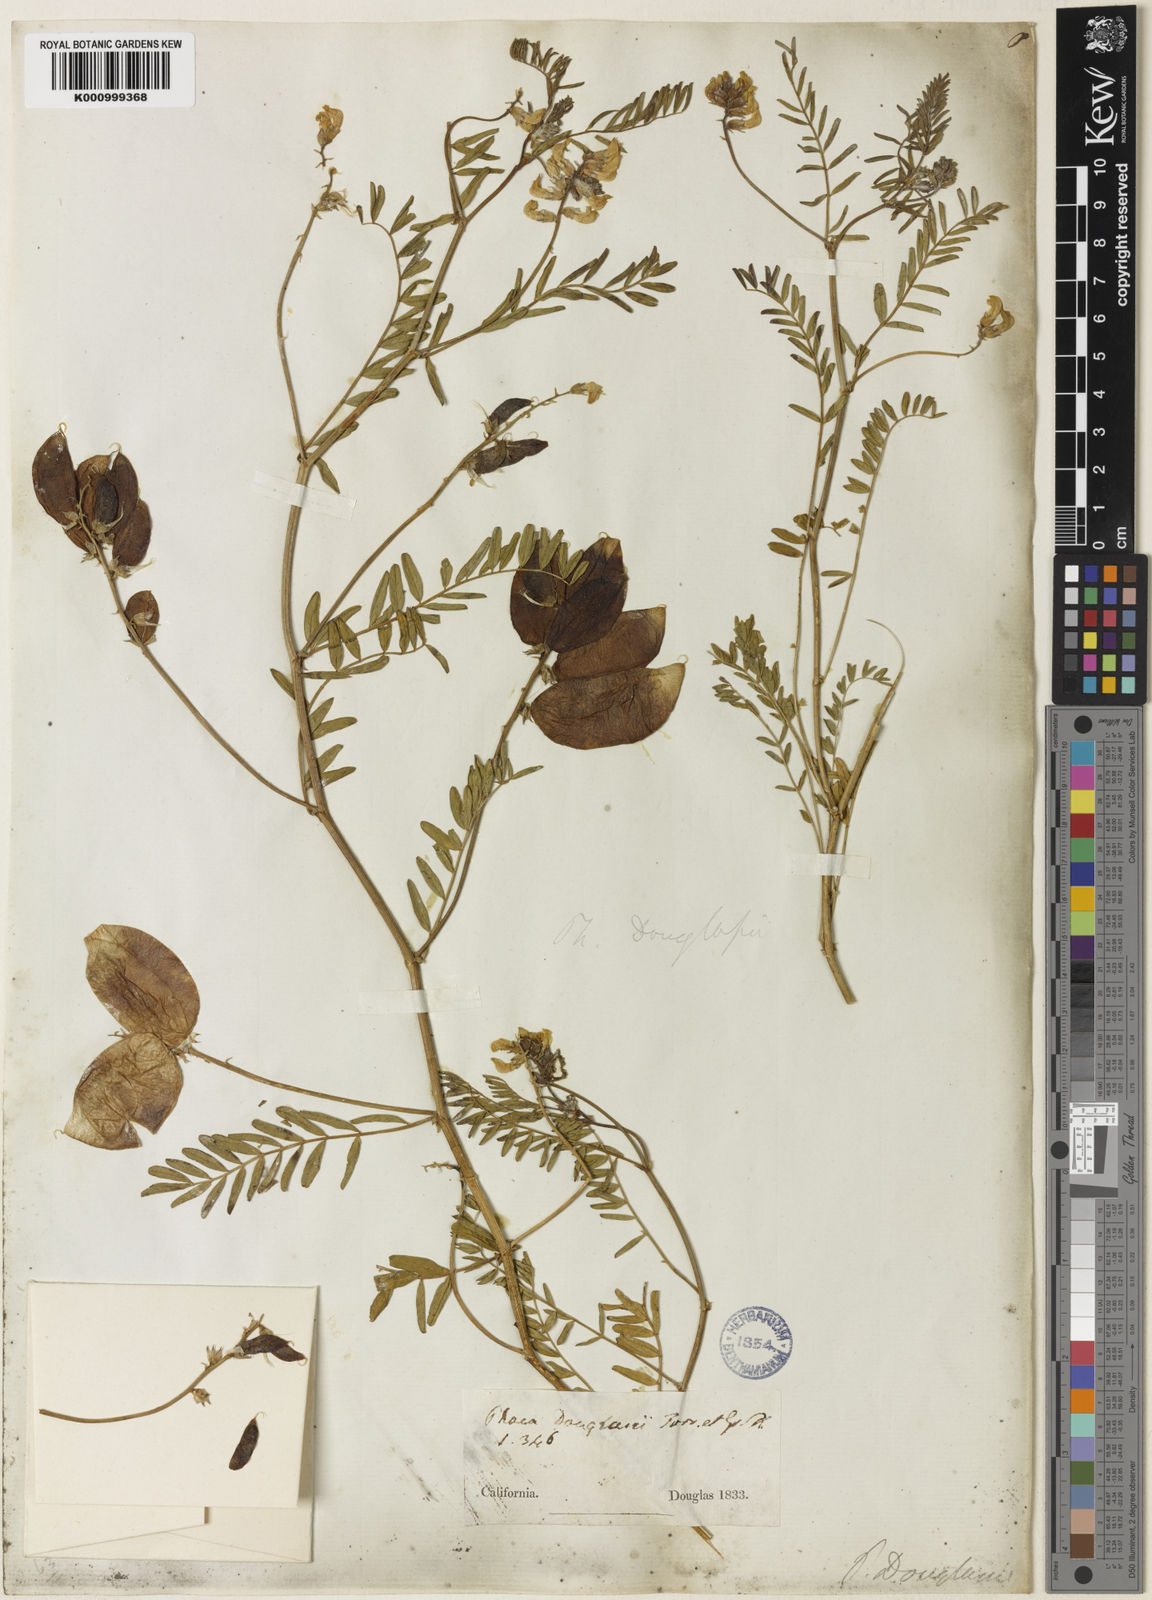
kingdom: Plantae
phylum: Tracheophyta
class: Magnoliopsida
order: Fabales
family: Fabaceae
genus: Astragalus
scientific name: Astragalus douglasii
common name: Jacumba milkvetch
